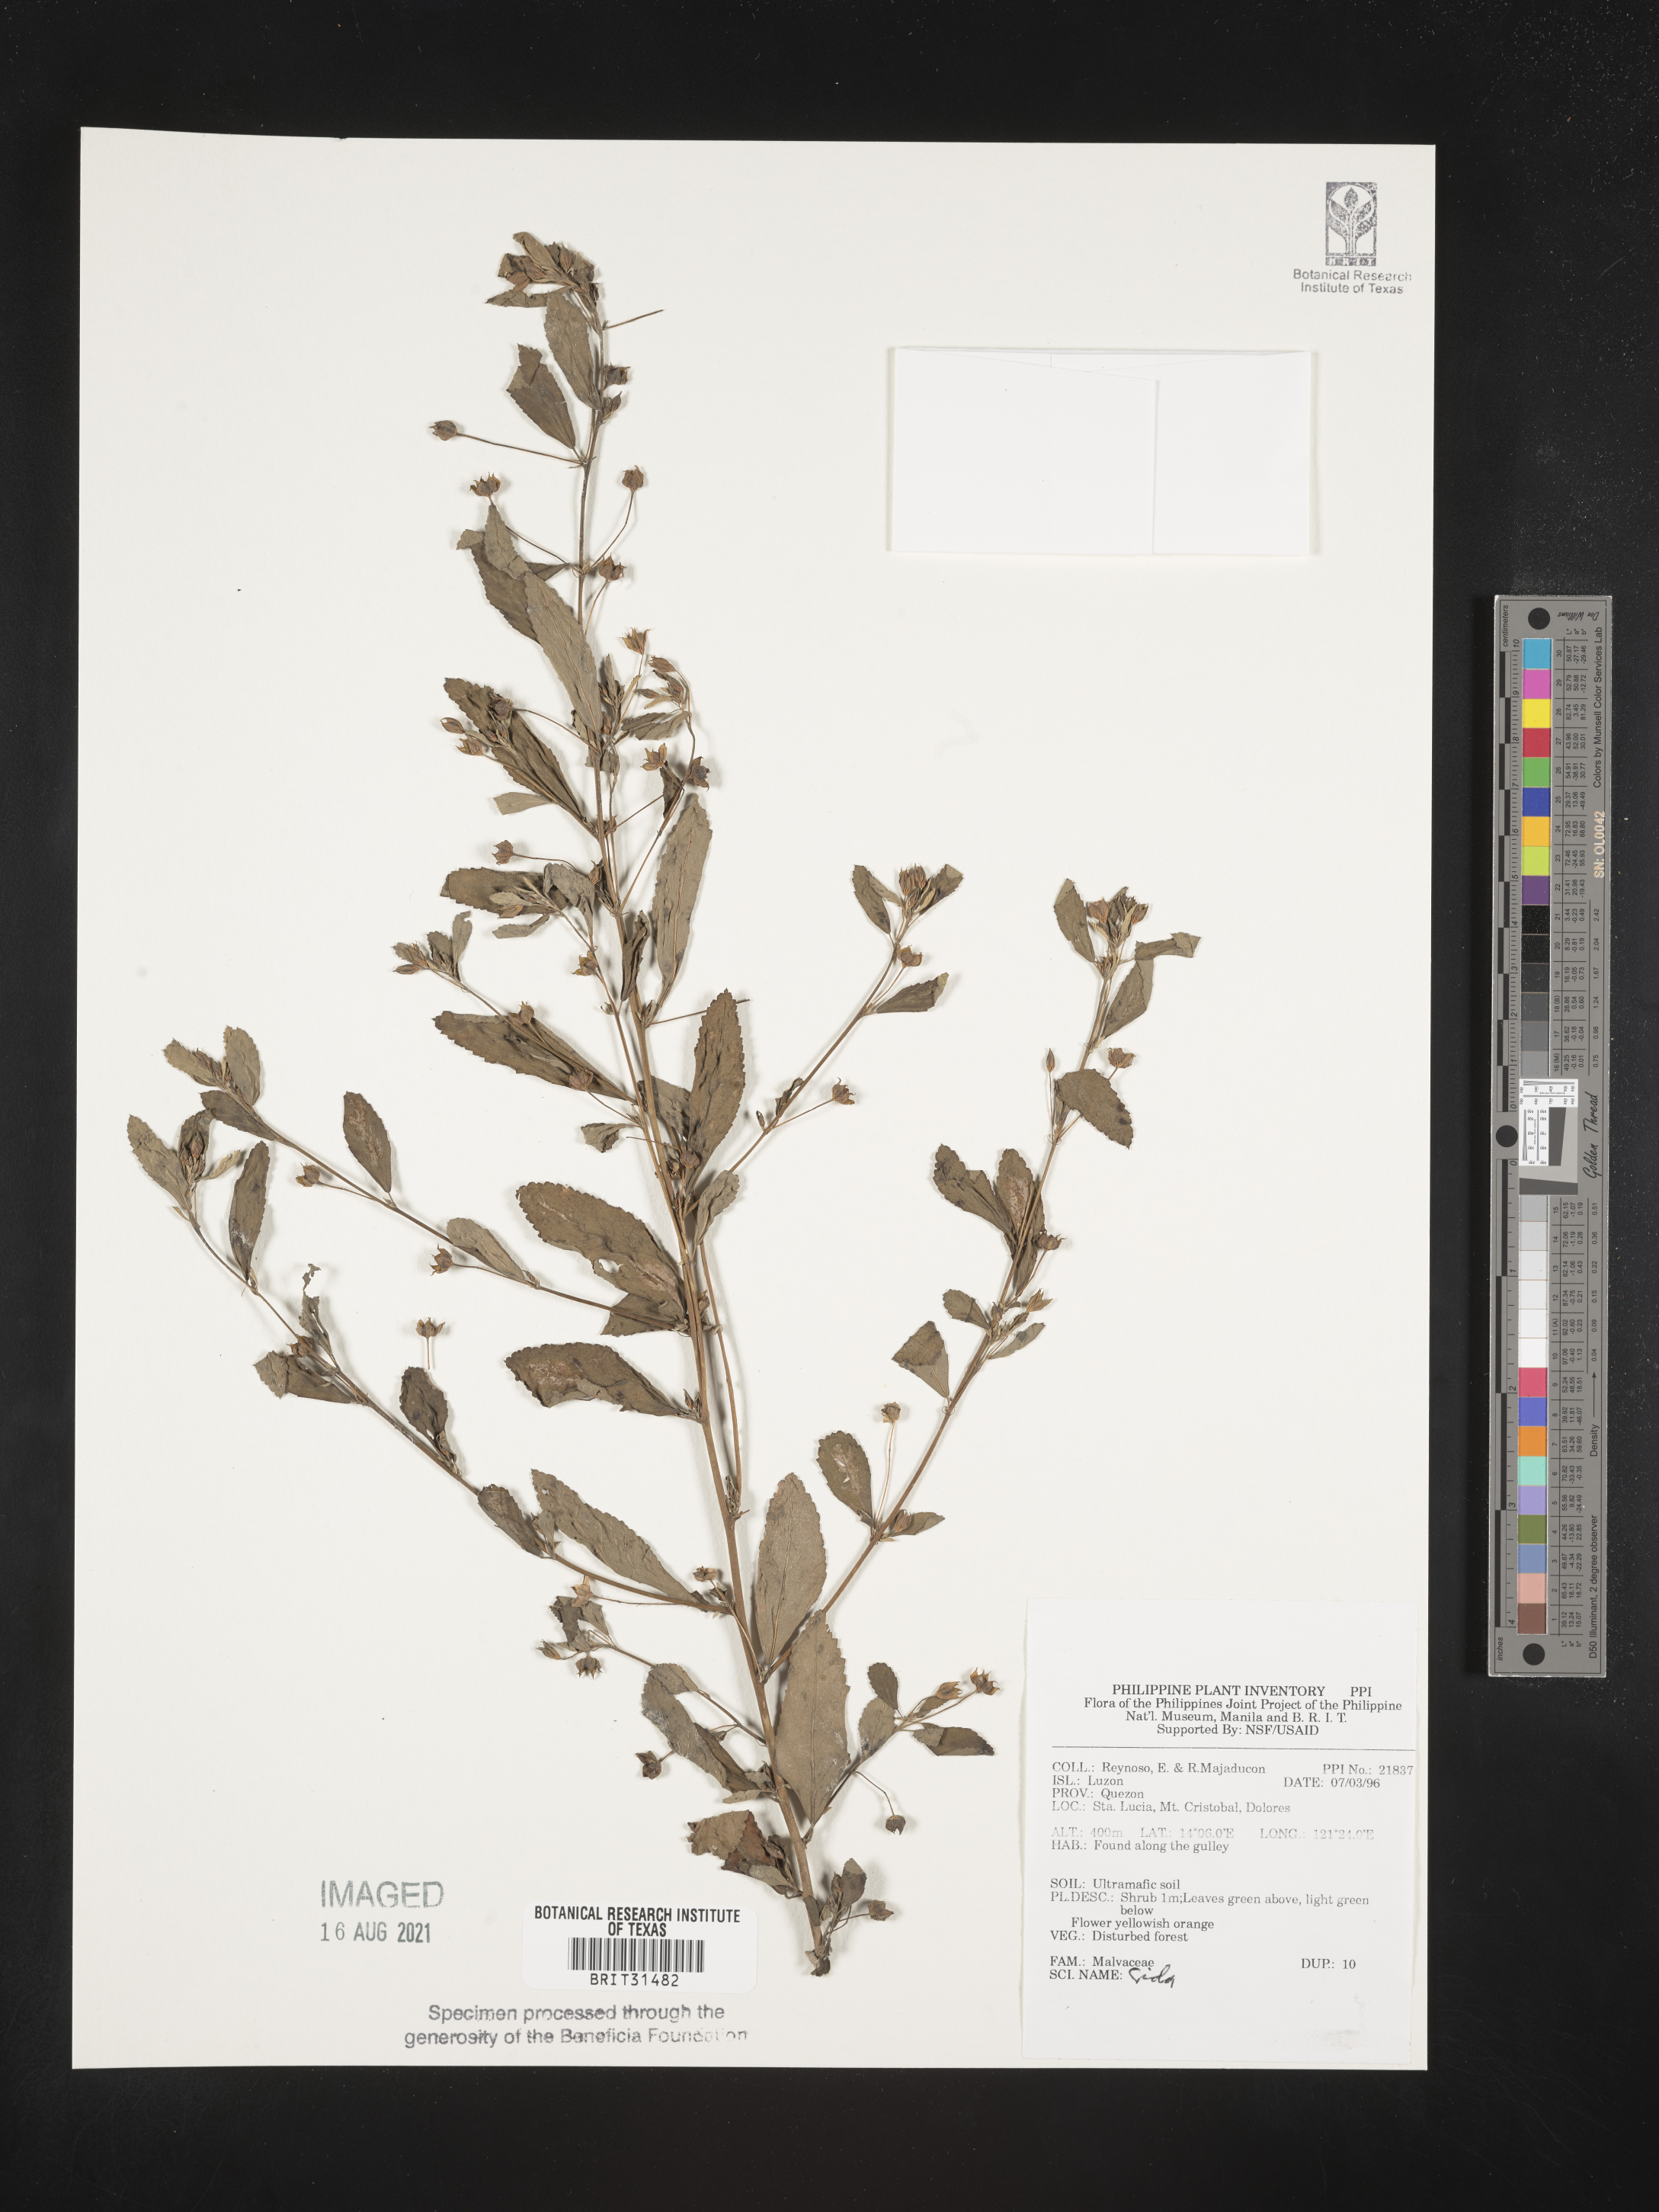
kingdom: Plantae
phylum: Tracheophyta
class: Magnoliopsida
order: Malvales
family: Malvaceae
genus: Sida
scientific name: Sida
